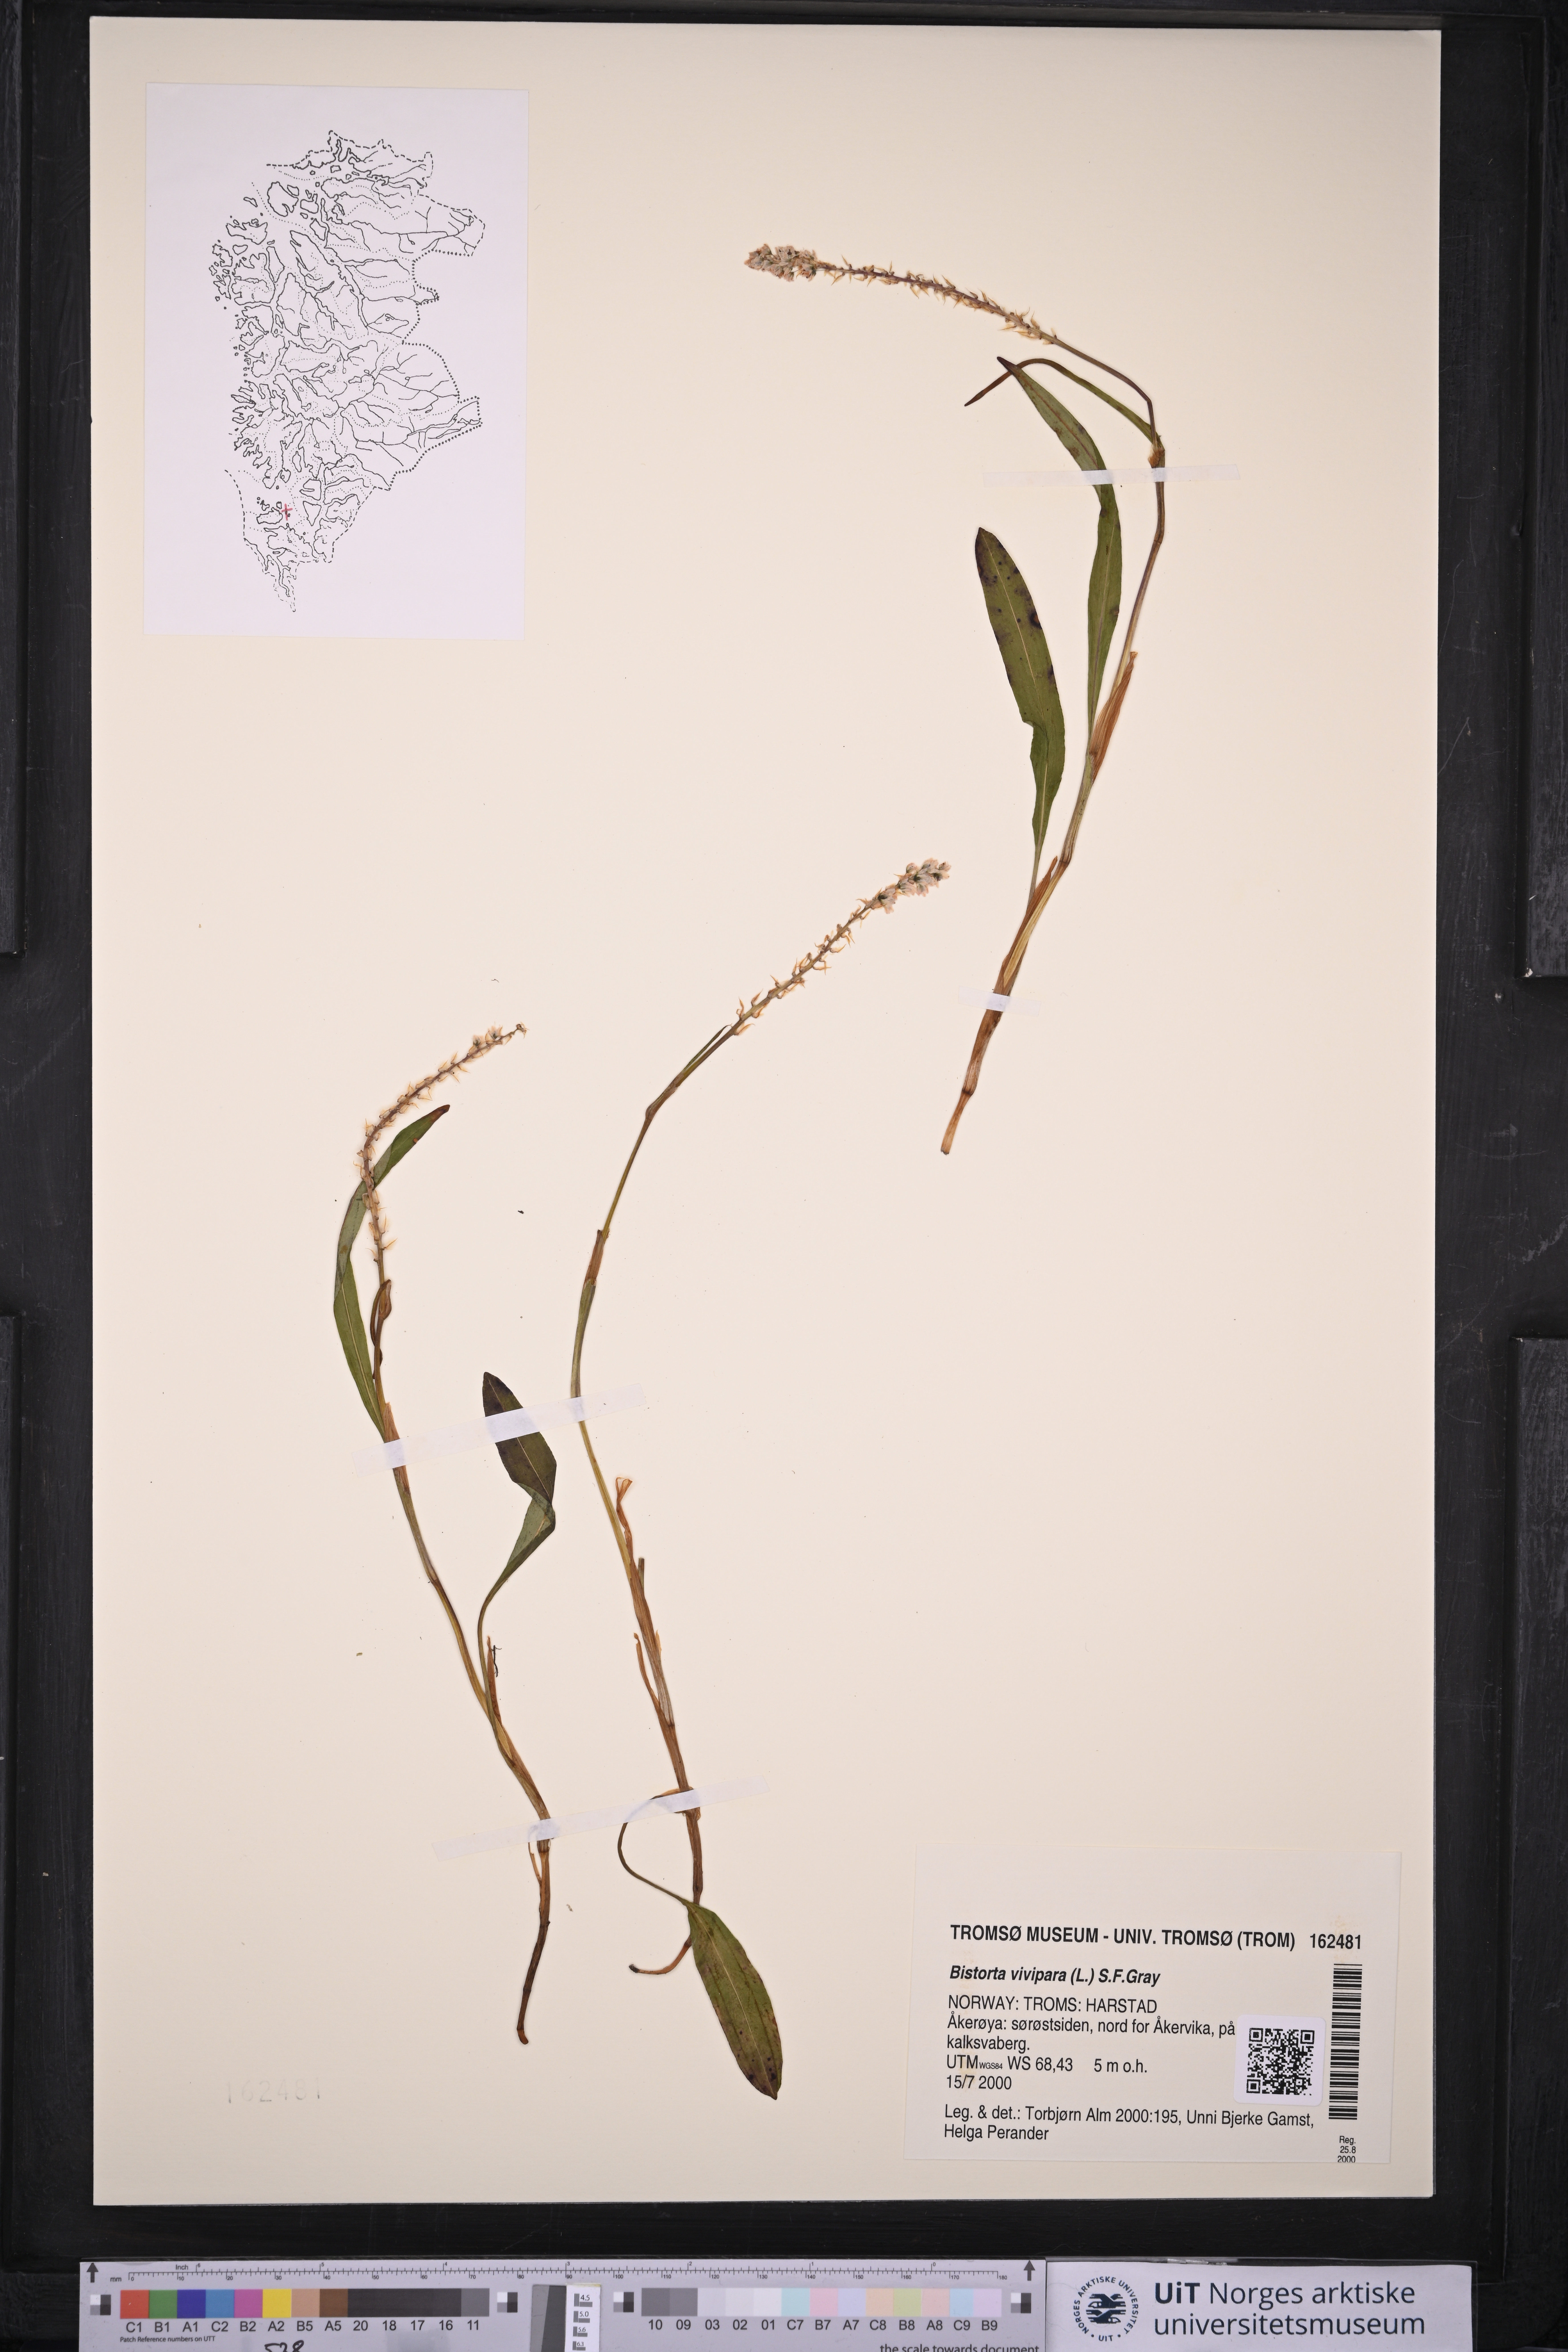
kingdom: Plantae
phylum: Tracheophyta
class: Magnoliopsida
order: Caryophyllales
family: Polygonaceae
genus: Bistorta
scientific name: Bistorta vivipara
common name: Alpine bistort
